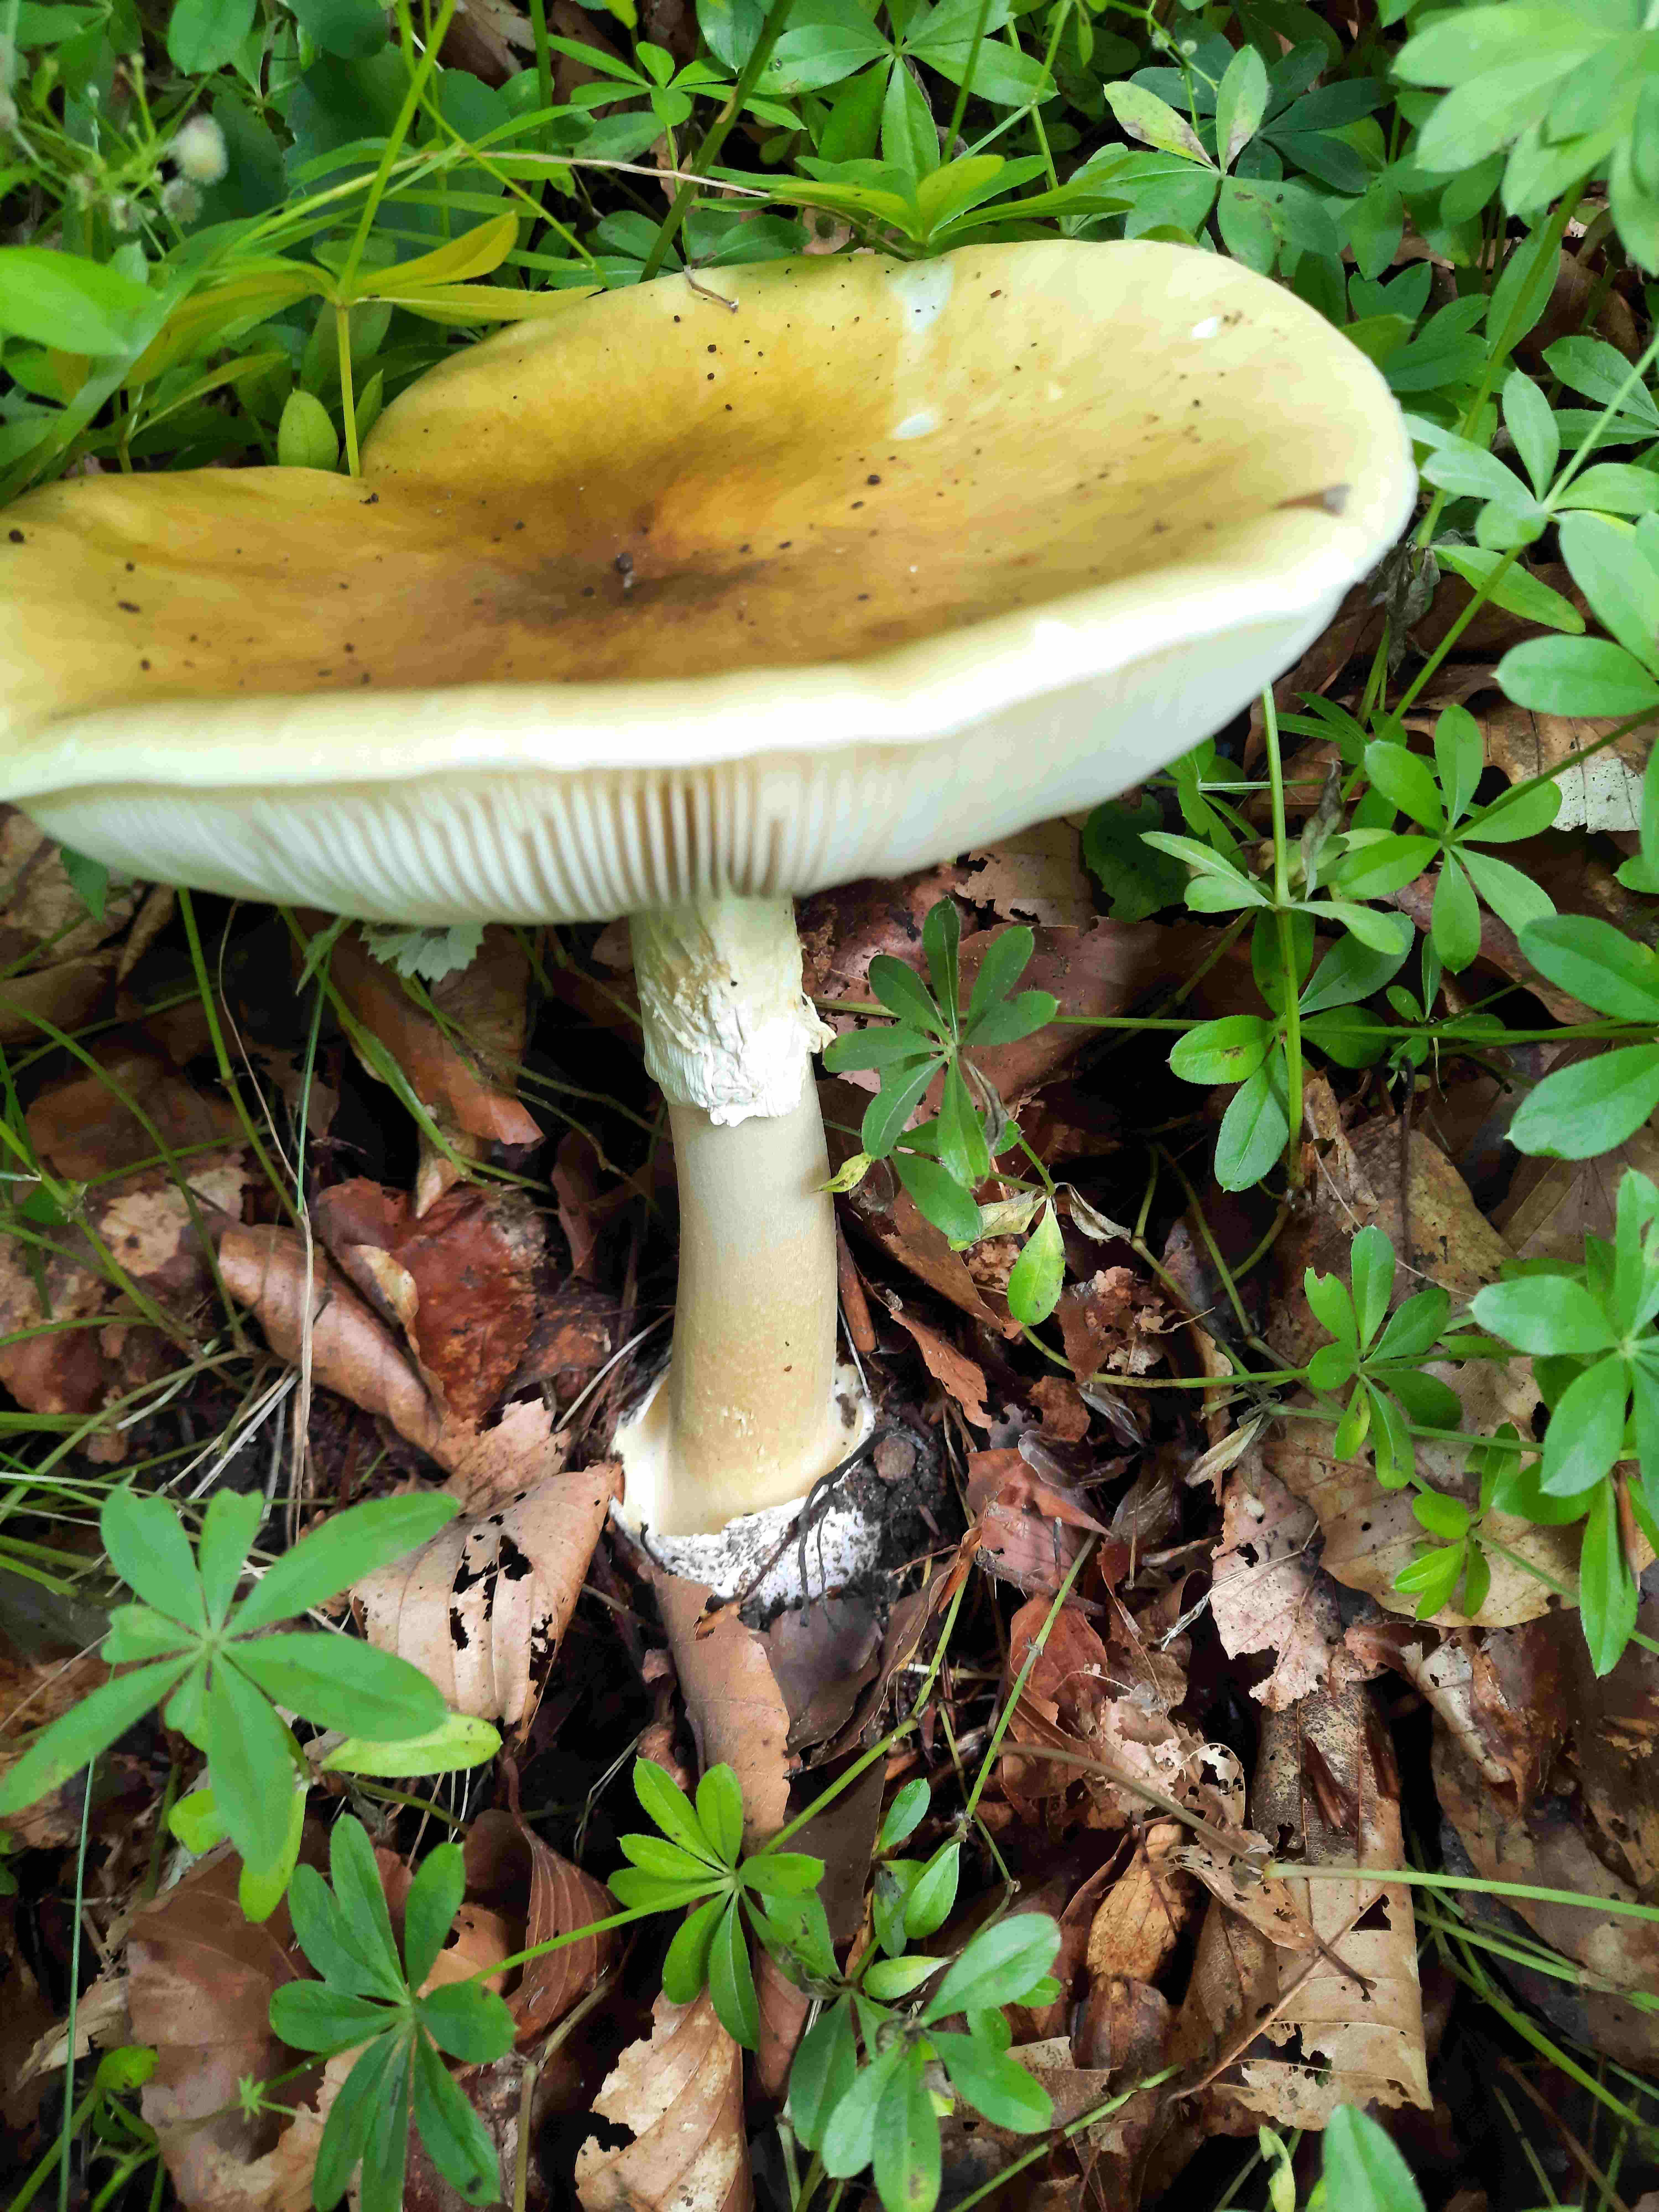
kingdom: Fungi
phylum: Basidiomycota
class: Agaricomycetes
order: Agaricales
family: Amanitaceae
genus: Amanita
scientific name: Amanita phalloides
